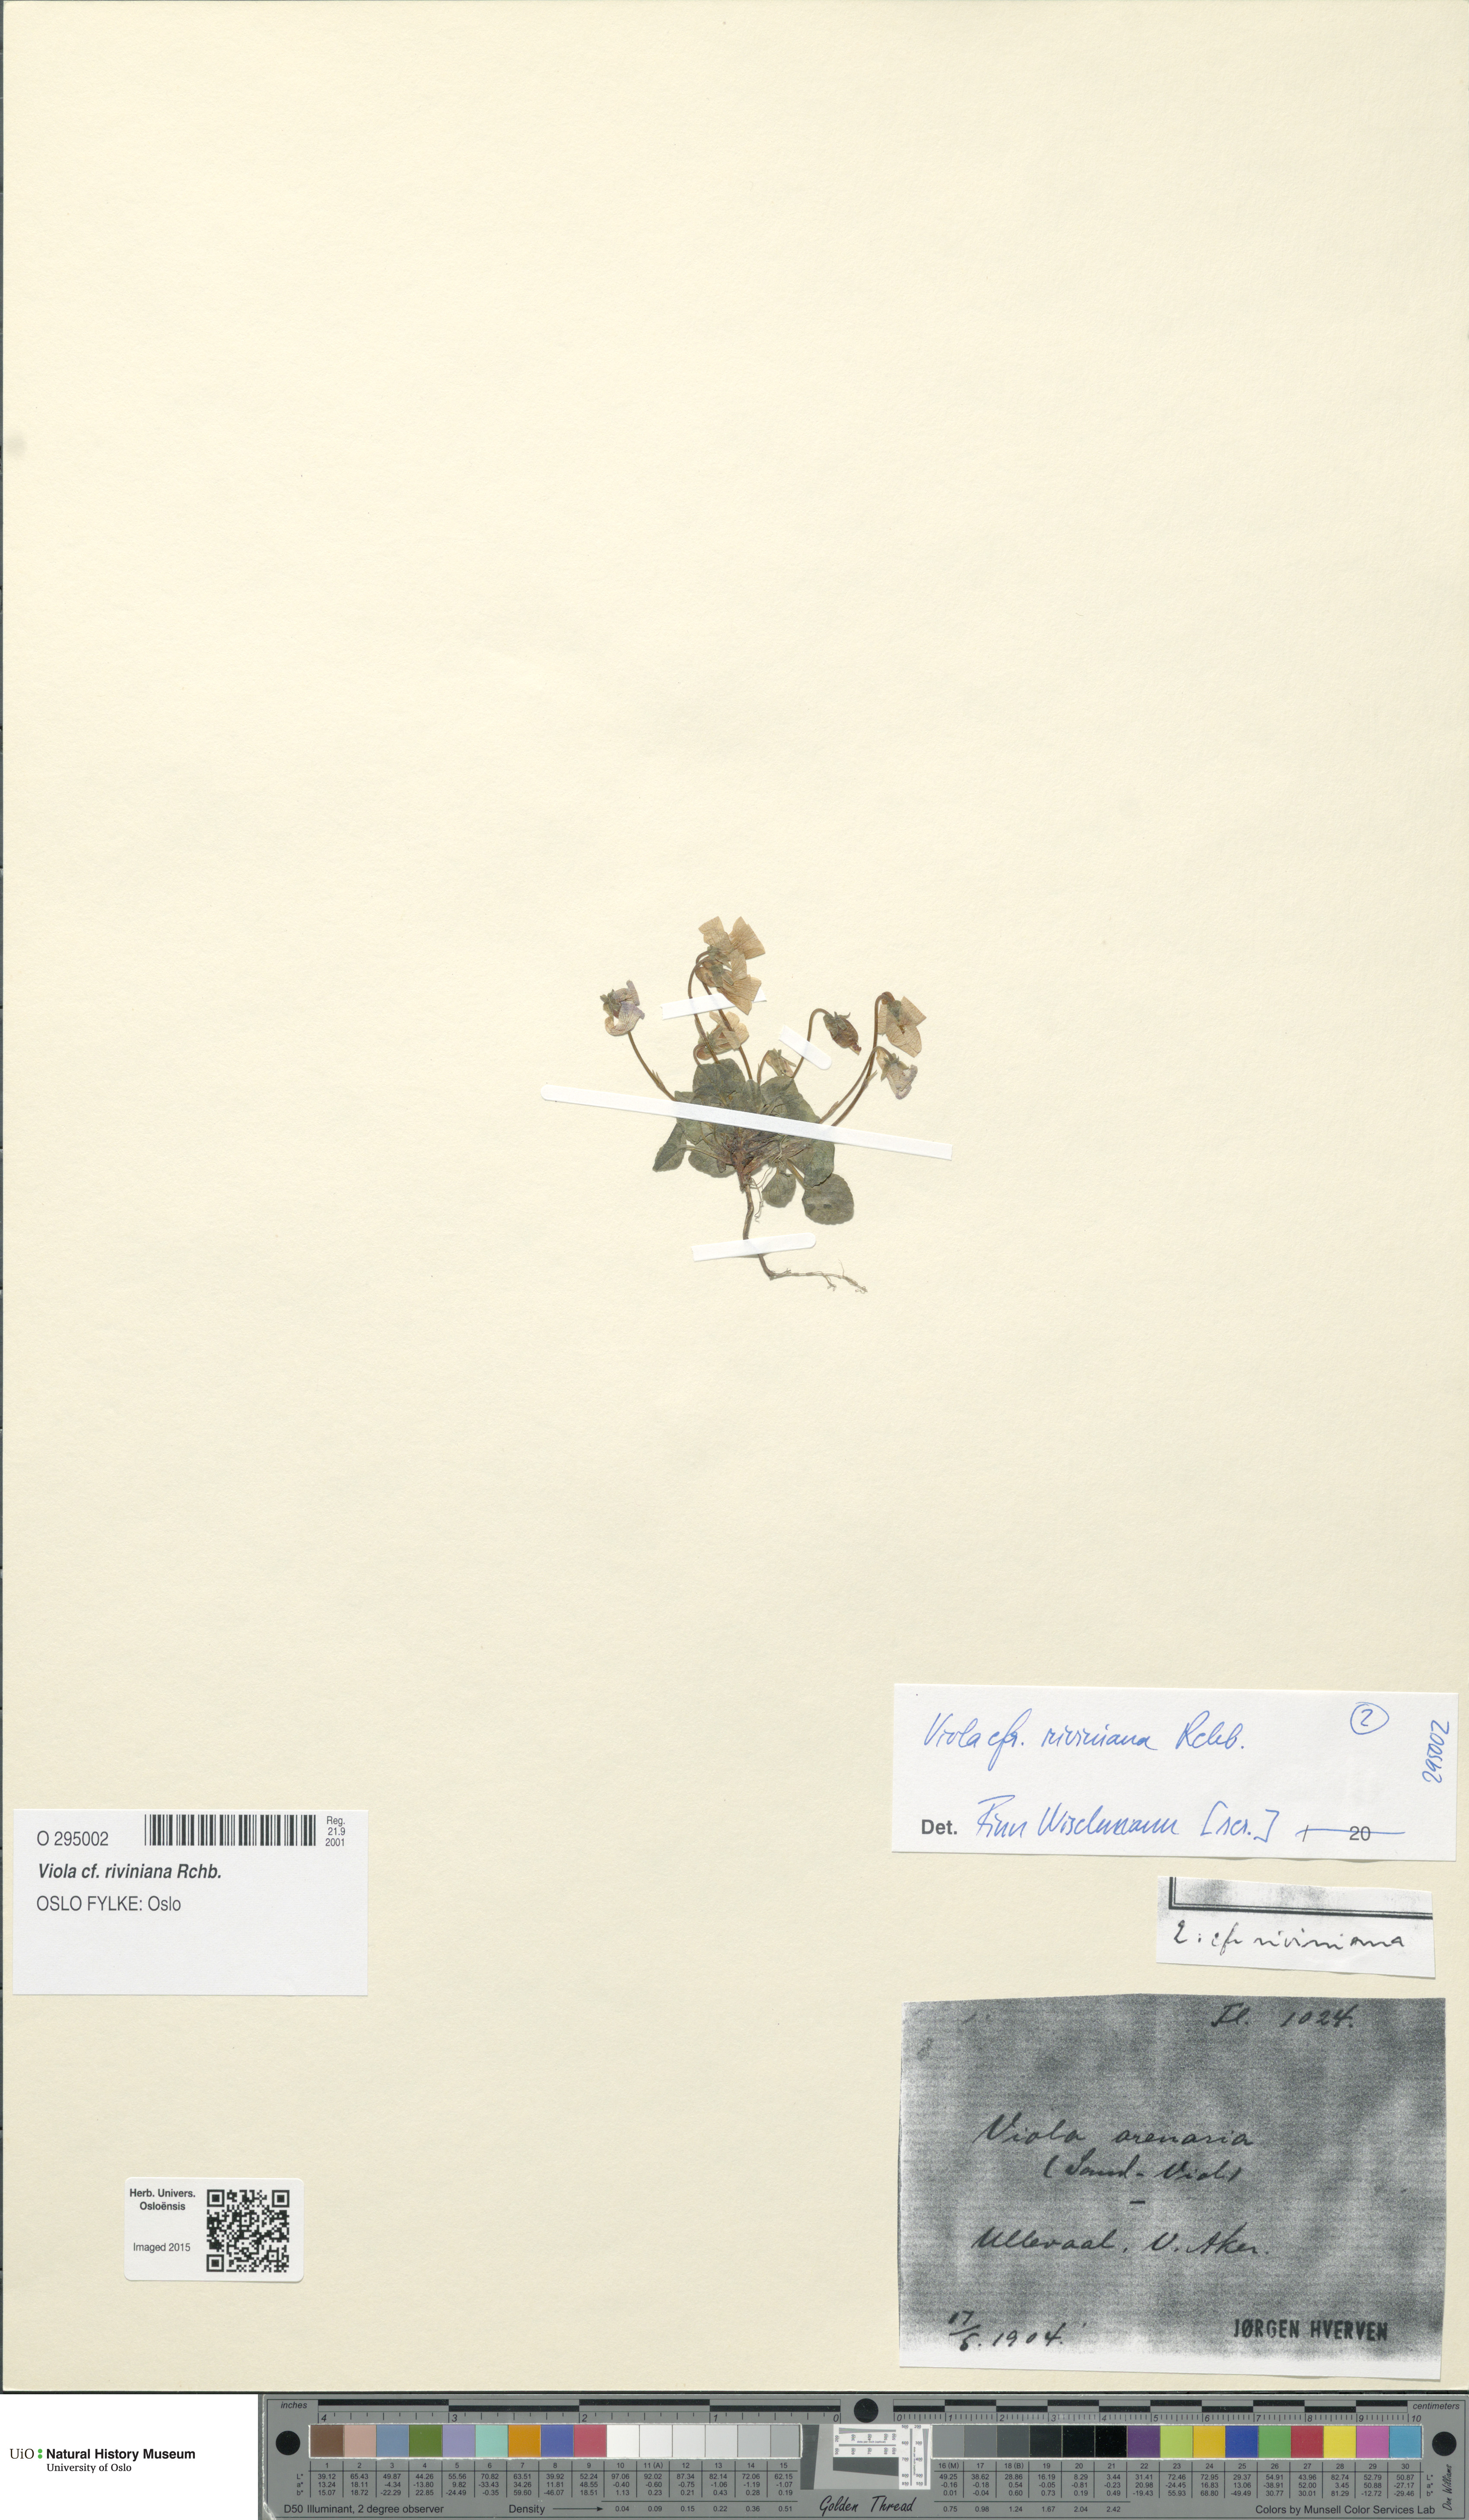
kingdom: Plantae
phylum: Tracheophyta
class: Magnoliopsida
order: Malpighiales
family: Violaceae
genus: Viola
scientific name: Viola riviniana
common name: Common dog-violet
